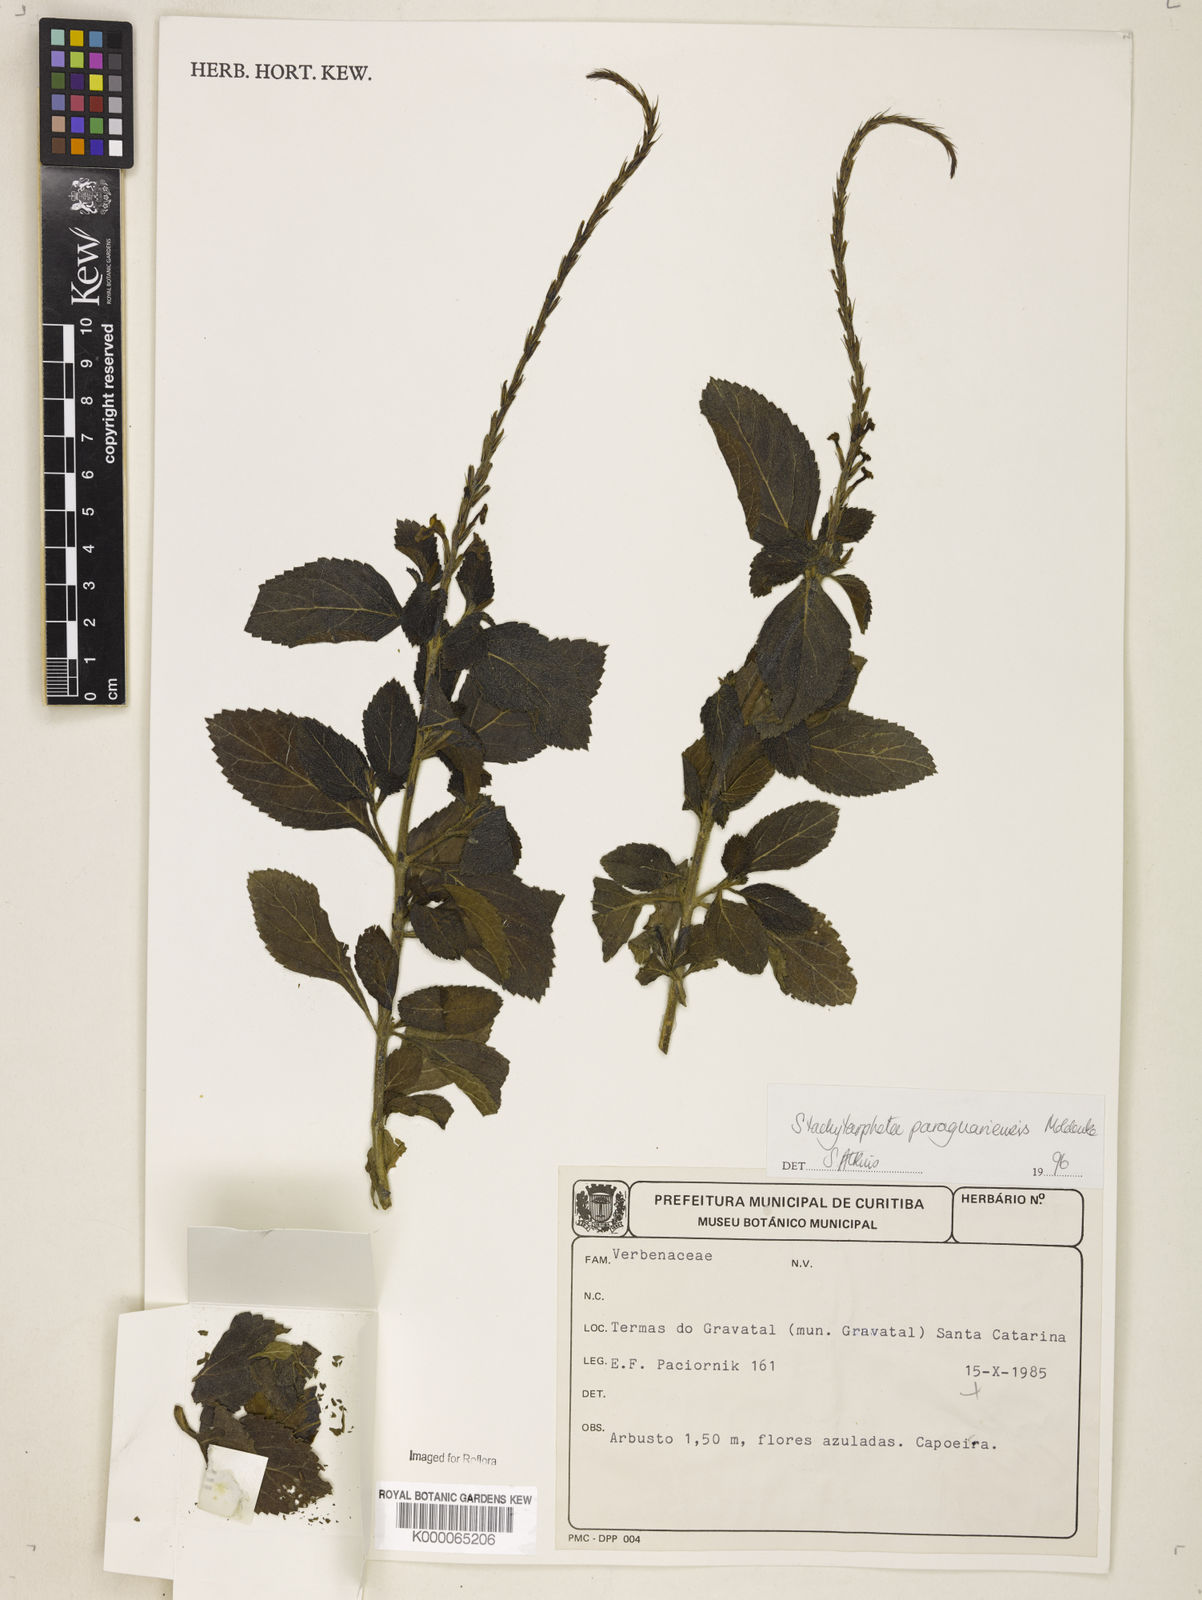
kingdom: Plantae
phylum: Tracheophyta
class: Magnoliopsida
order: Lamiales
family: Verbenaceae
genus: Stachytarpheta
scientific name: Stachytarpheta paraguariensis
